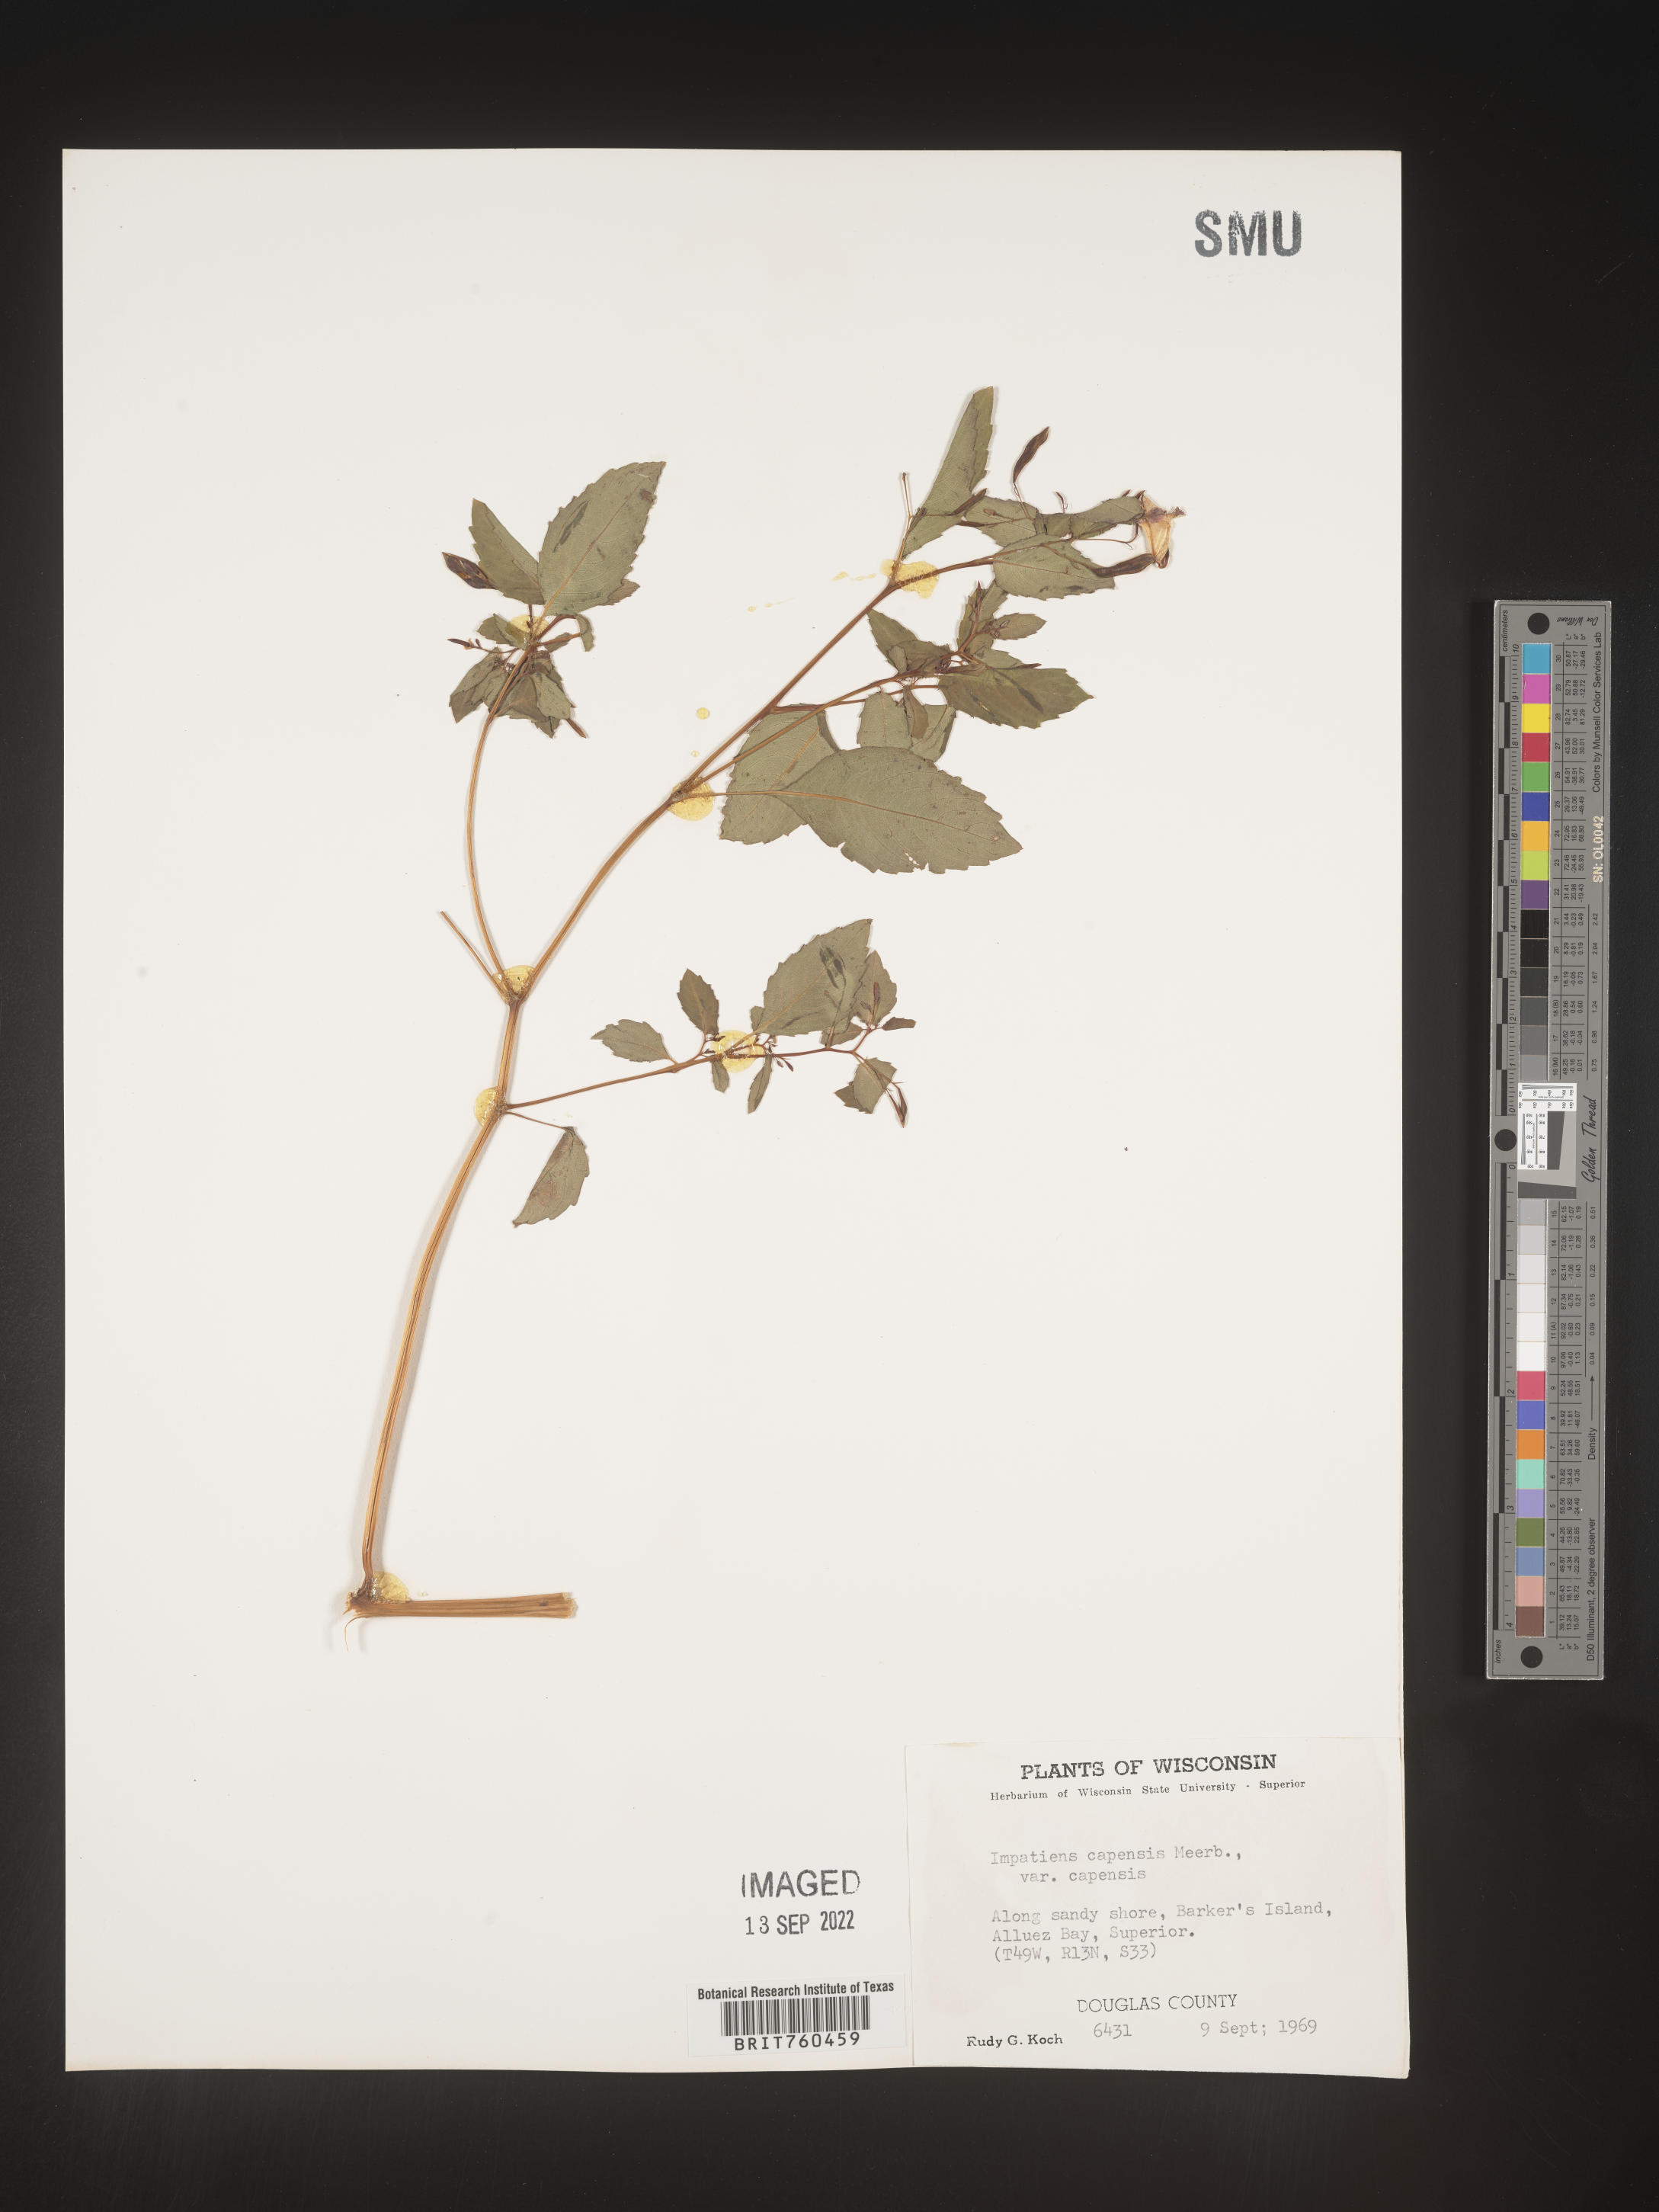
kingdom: Plantae
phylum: Tracheophyta
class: Magnoliopsida
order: Ericales
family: Balsaminaceae
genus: Impatiens
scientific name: Impatiens capensis
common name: Orange balsam
